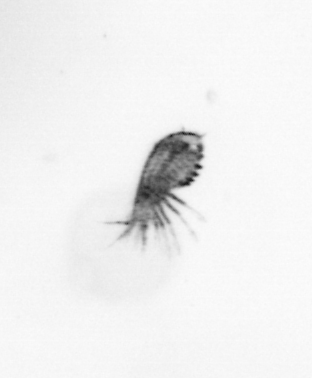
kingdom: Animalia
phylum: Arthropoda
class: Copepoda
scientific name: Copepoda
